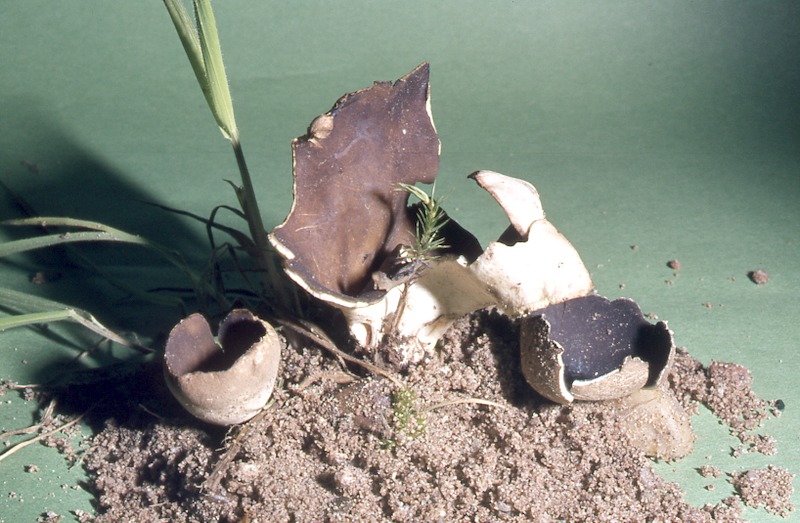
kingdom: Fungi
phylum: Ascomycota
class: Pezizomycetes
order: Pezizales
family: Helvellaceae
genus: Dissingia
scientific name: Dissingia leucomelaena
